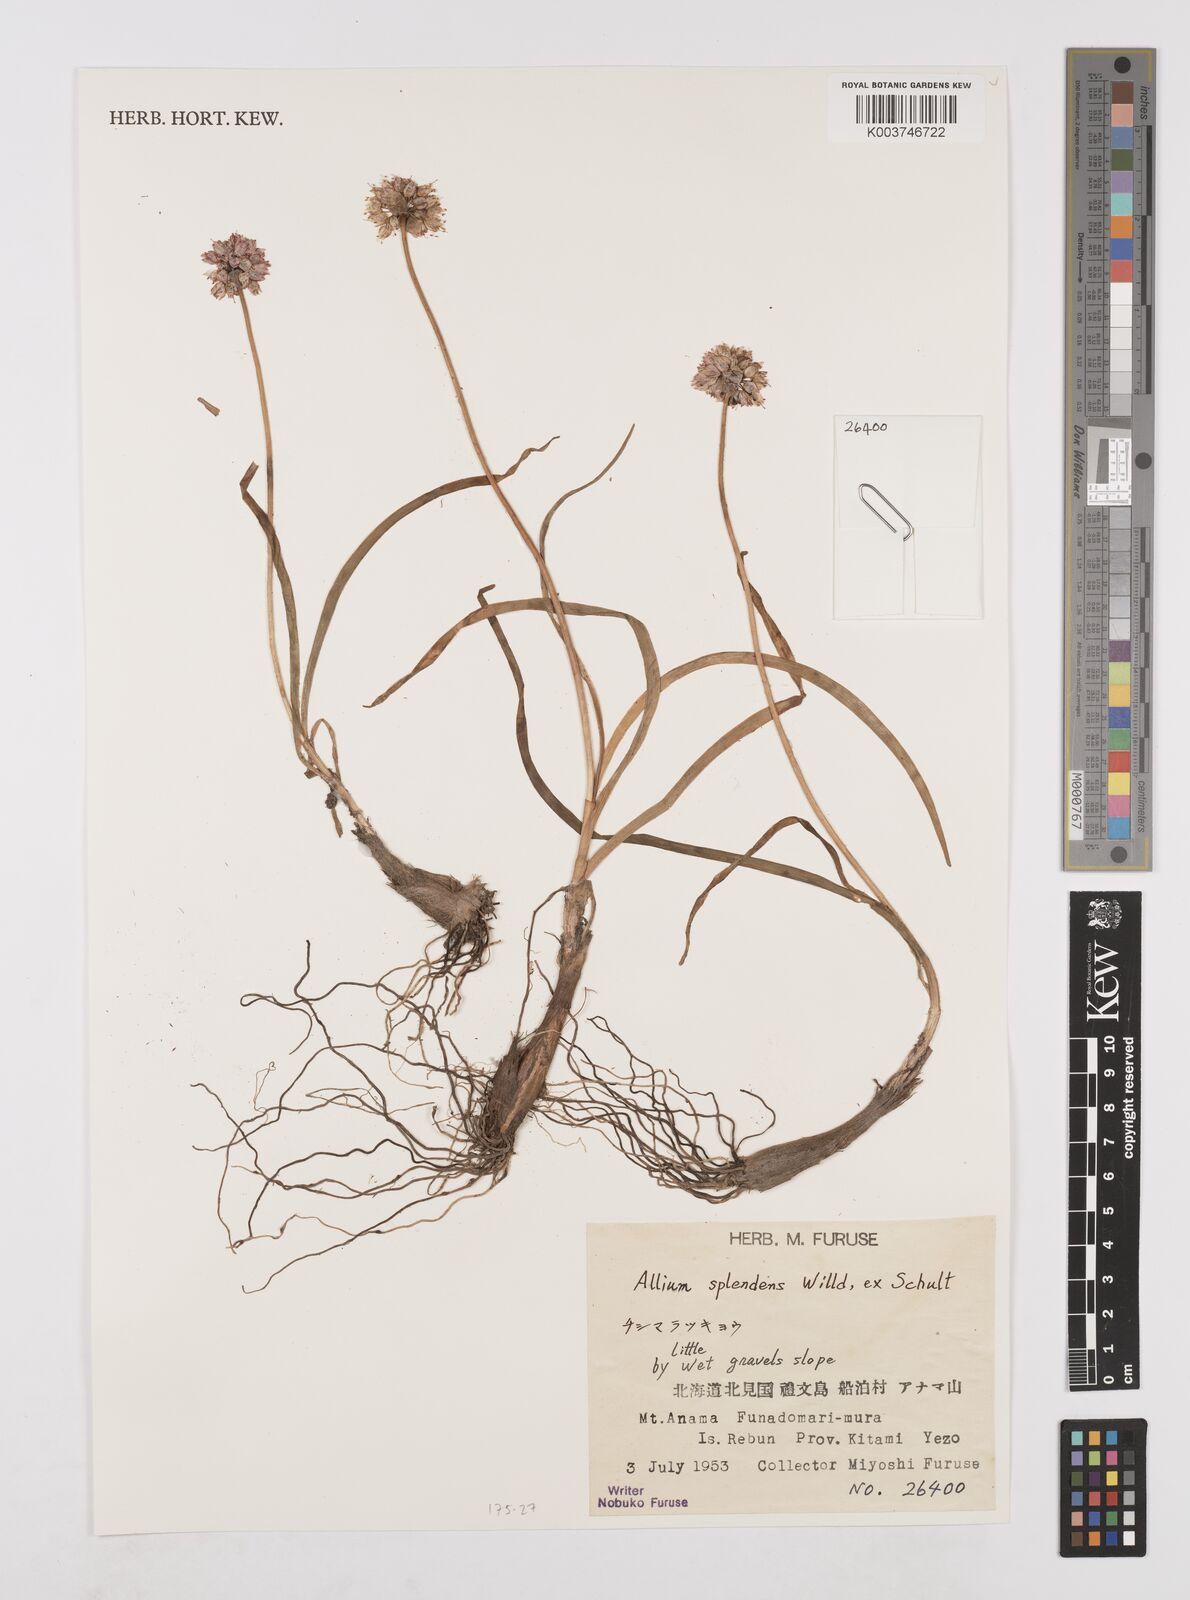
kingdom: Plantae
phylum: Tracheophyta
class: Liliopsida
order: Asparagales
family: Amaryllidaceae
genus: Allium
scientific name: Allium splendens
